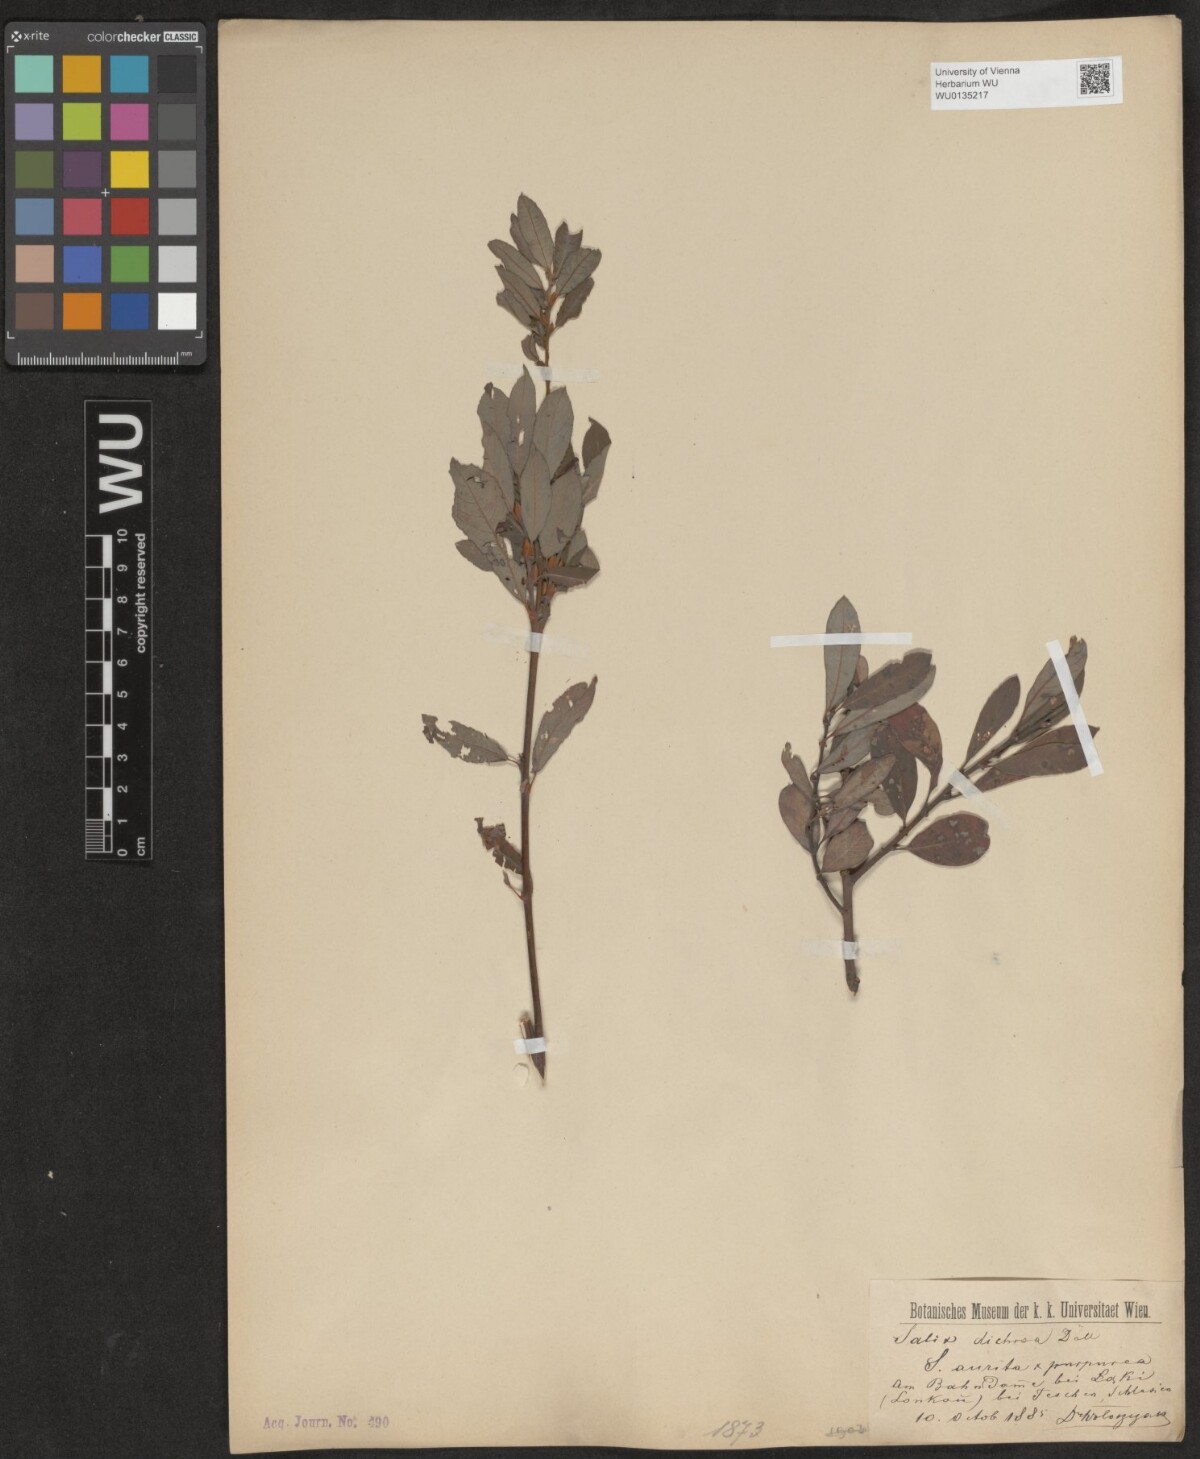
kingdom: Plantae
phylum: Tracheophyta
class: Magnoliopsida
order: Malpighiales
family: Salicaceae
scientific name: Salicaceae
